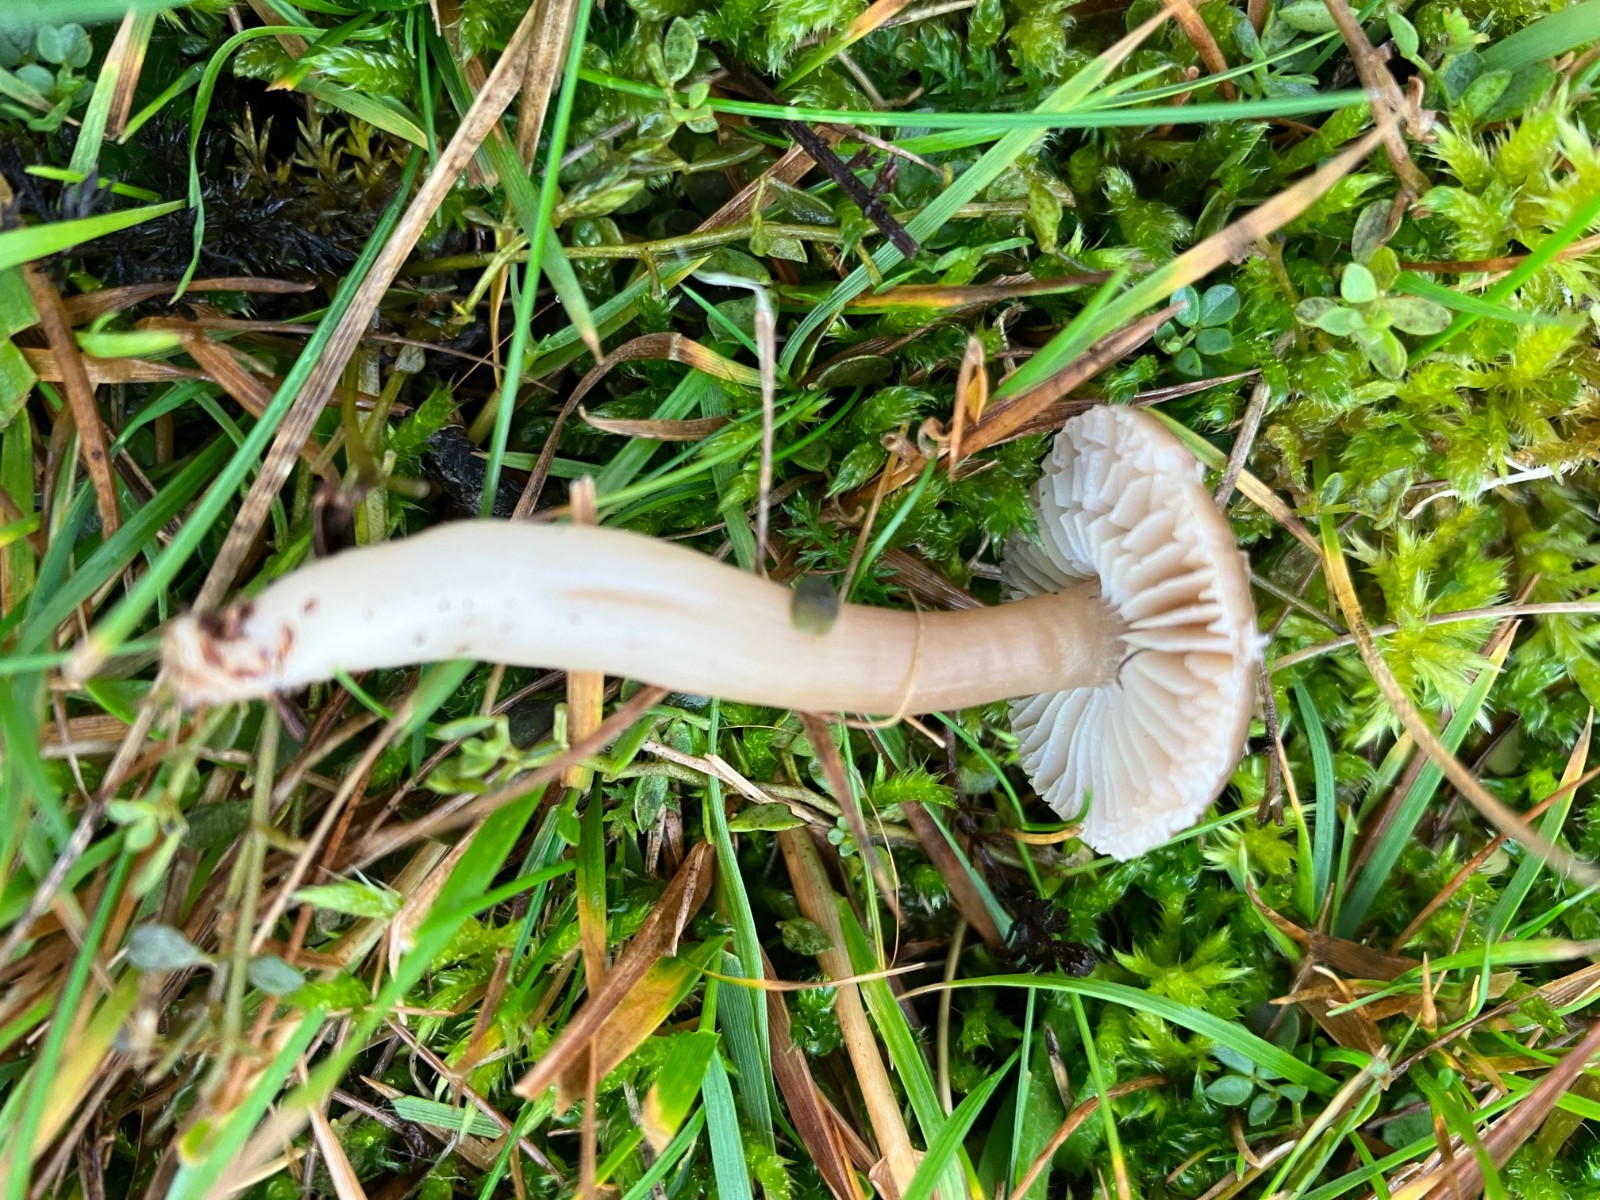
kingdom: Fungi
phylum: Basidiomycota
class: Agaricomycetes
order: Agaricales
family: Hygrophoraceae
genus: Neohygrocybe
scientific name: Neohygrocybe nitrata
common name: stinkende vokshat
